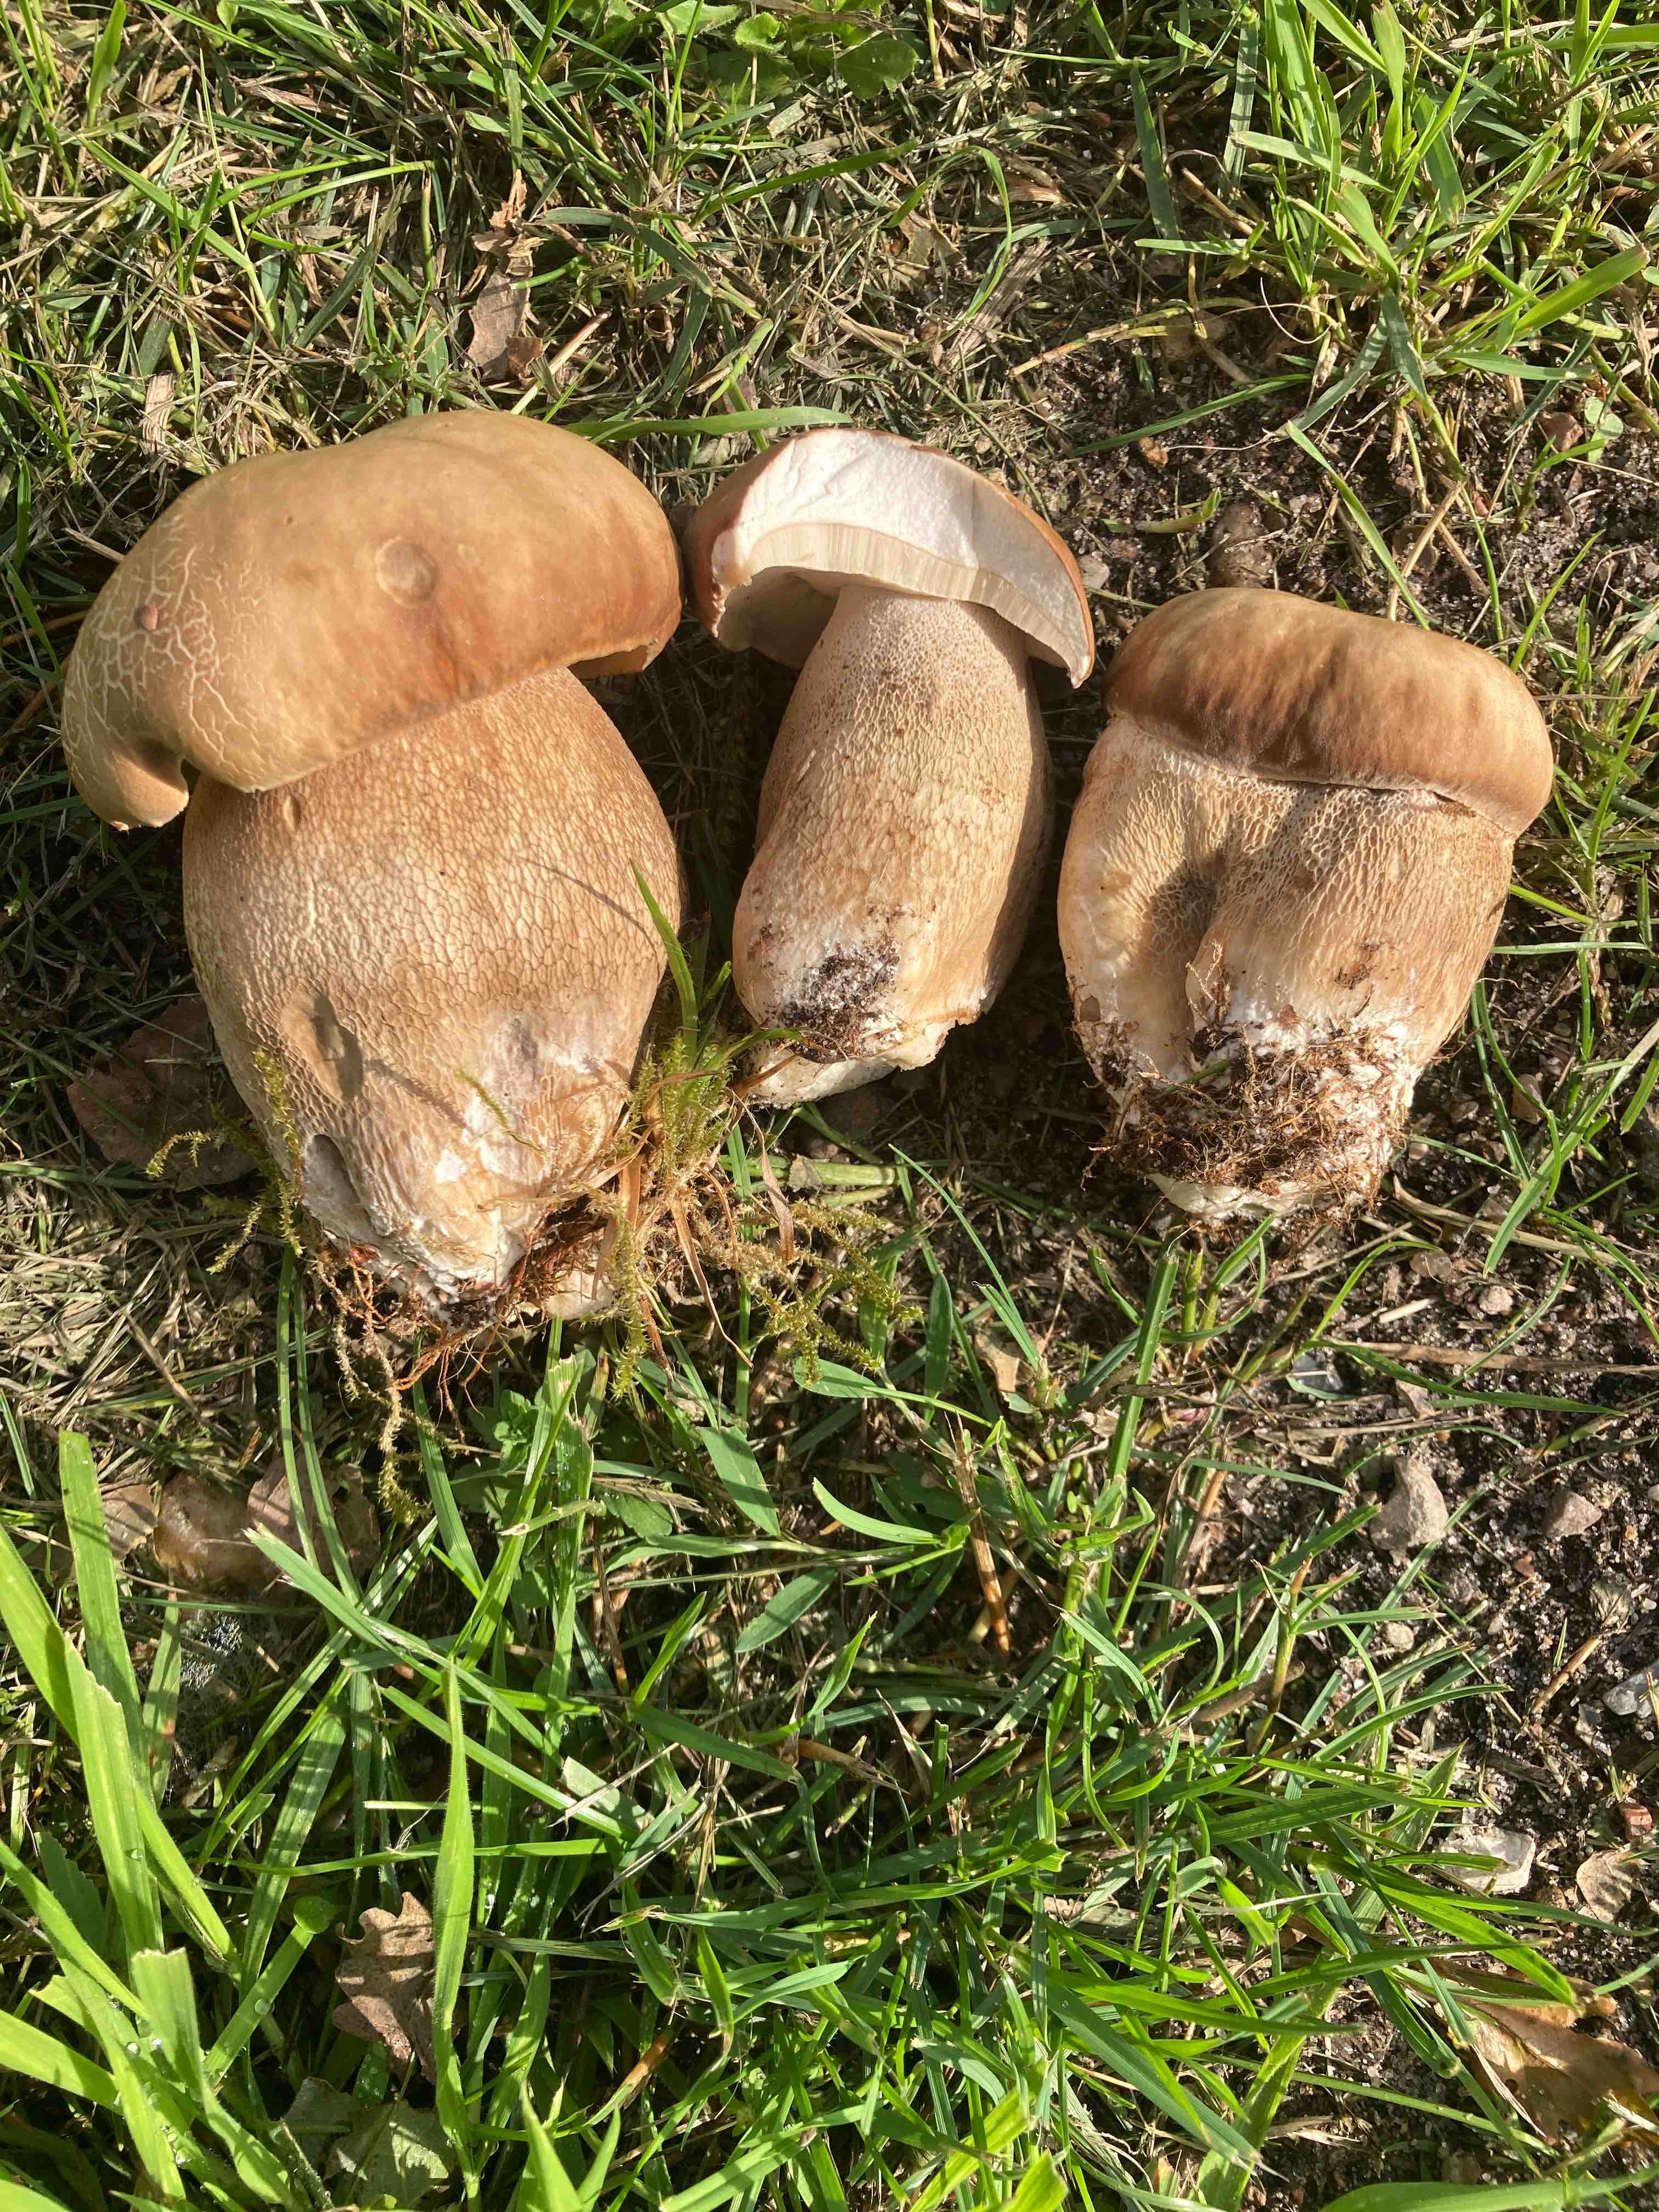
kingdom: Fungi
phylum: Basidiomycota
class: Agaricomycetes
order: Boletales
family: Boletaceae
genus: Boletus
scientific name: Boletus reticulatus
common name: sommer-rørhat
